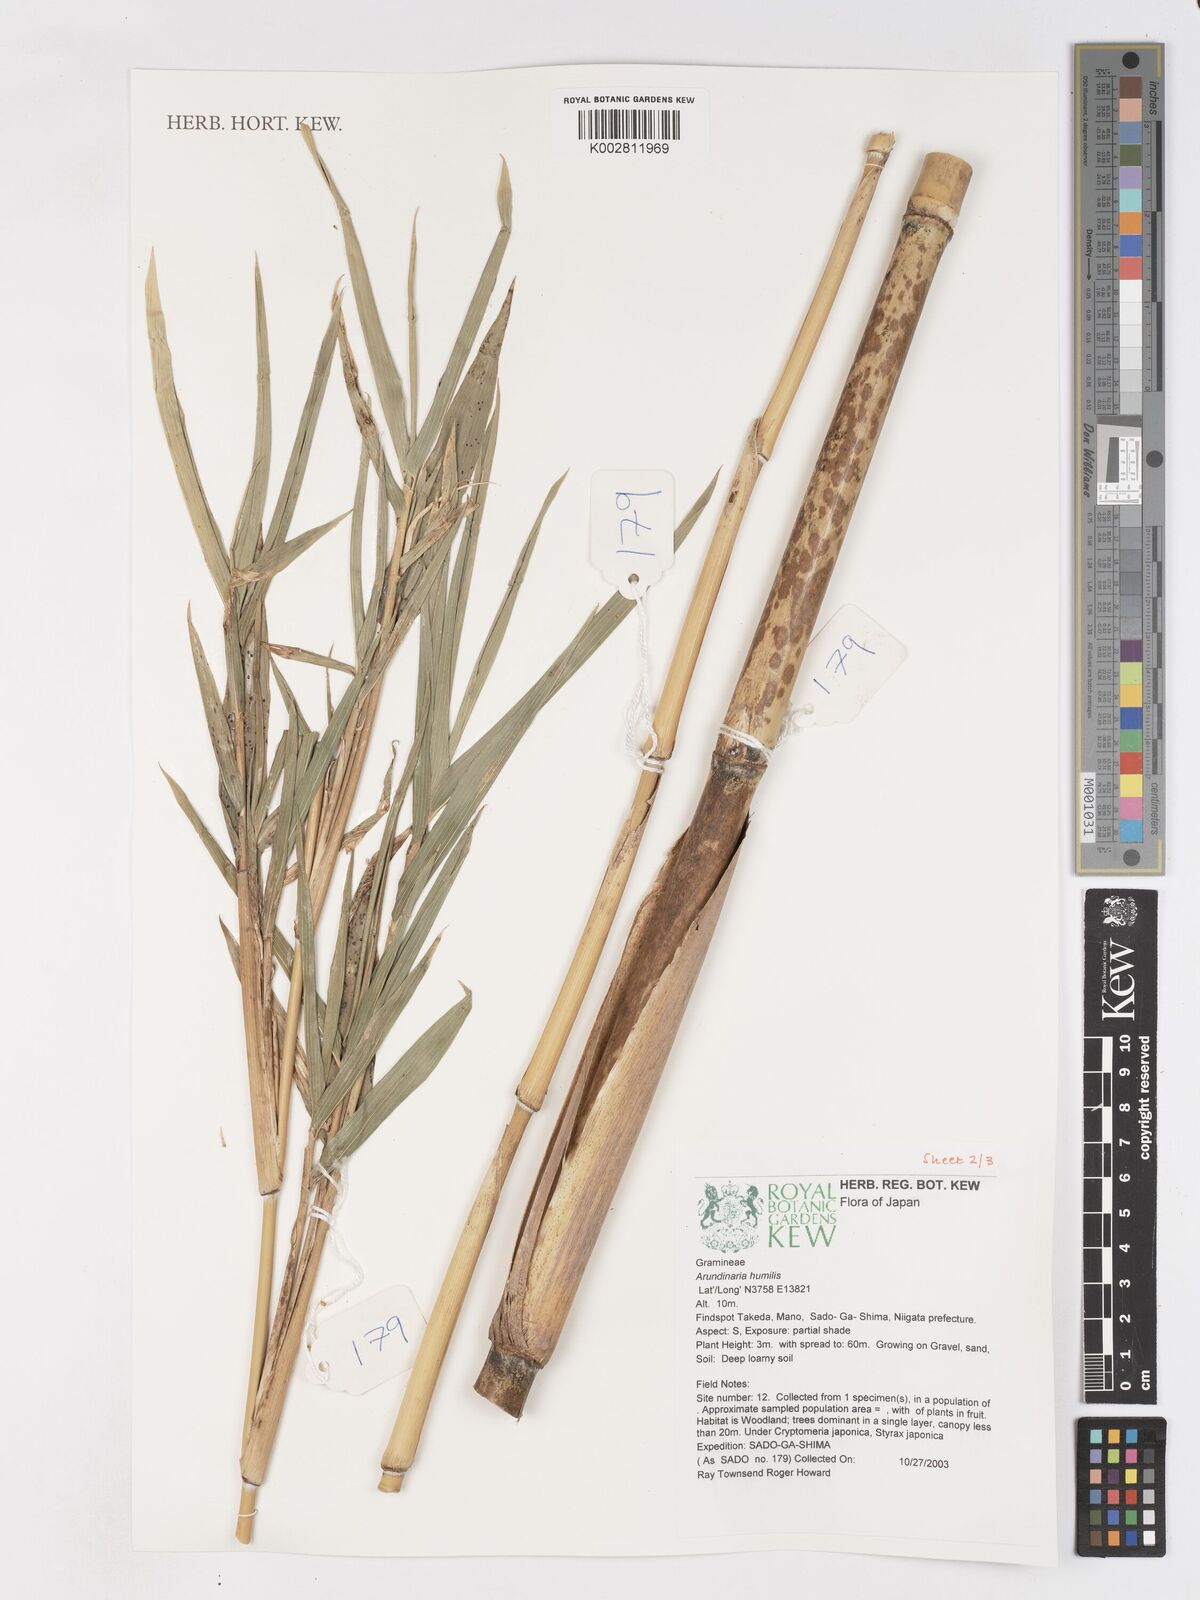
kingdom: Plantae
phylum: Tracheophyta
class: Liliopsida
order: Poales
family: Poaceae
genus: Pseudosasa
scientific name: Pseudosasa humilis
